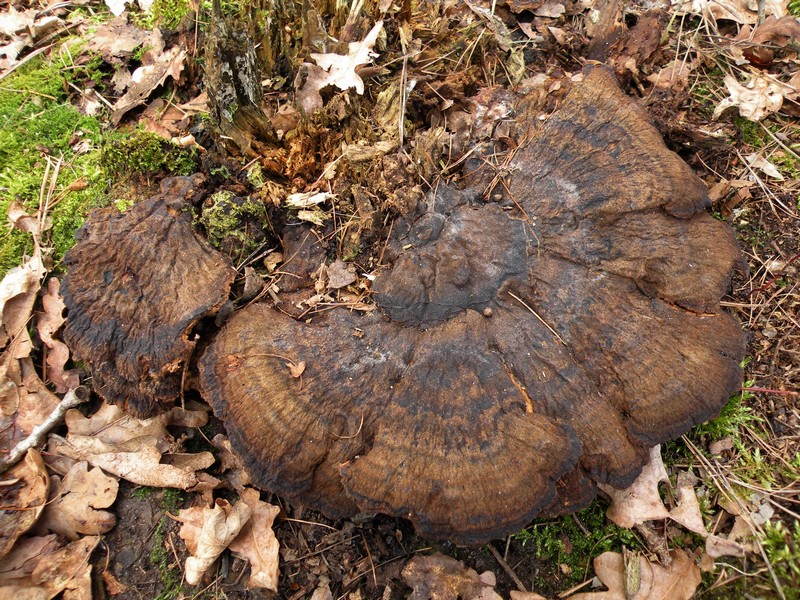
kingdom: Fungi
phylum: Basidiomycota
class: Agaricomycetes
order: Polyporales
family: Ischnodermataceae
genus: Ischnoderma
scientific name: Ischnoderma benzoinum
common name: gran-tjæreporesvamp
